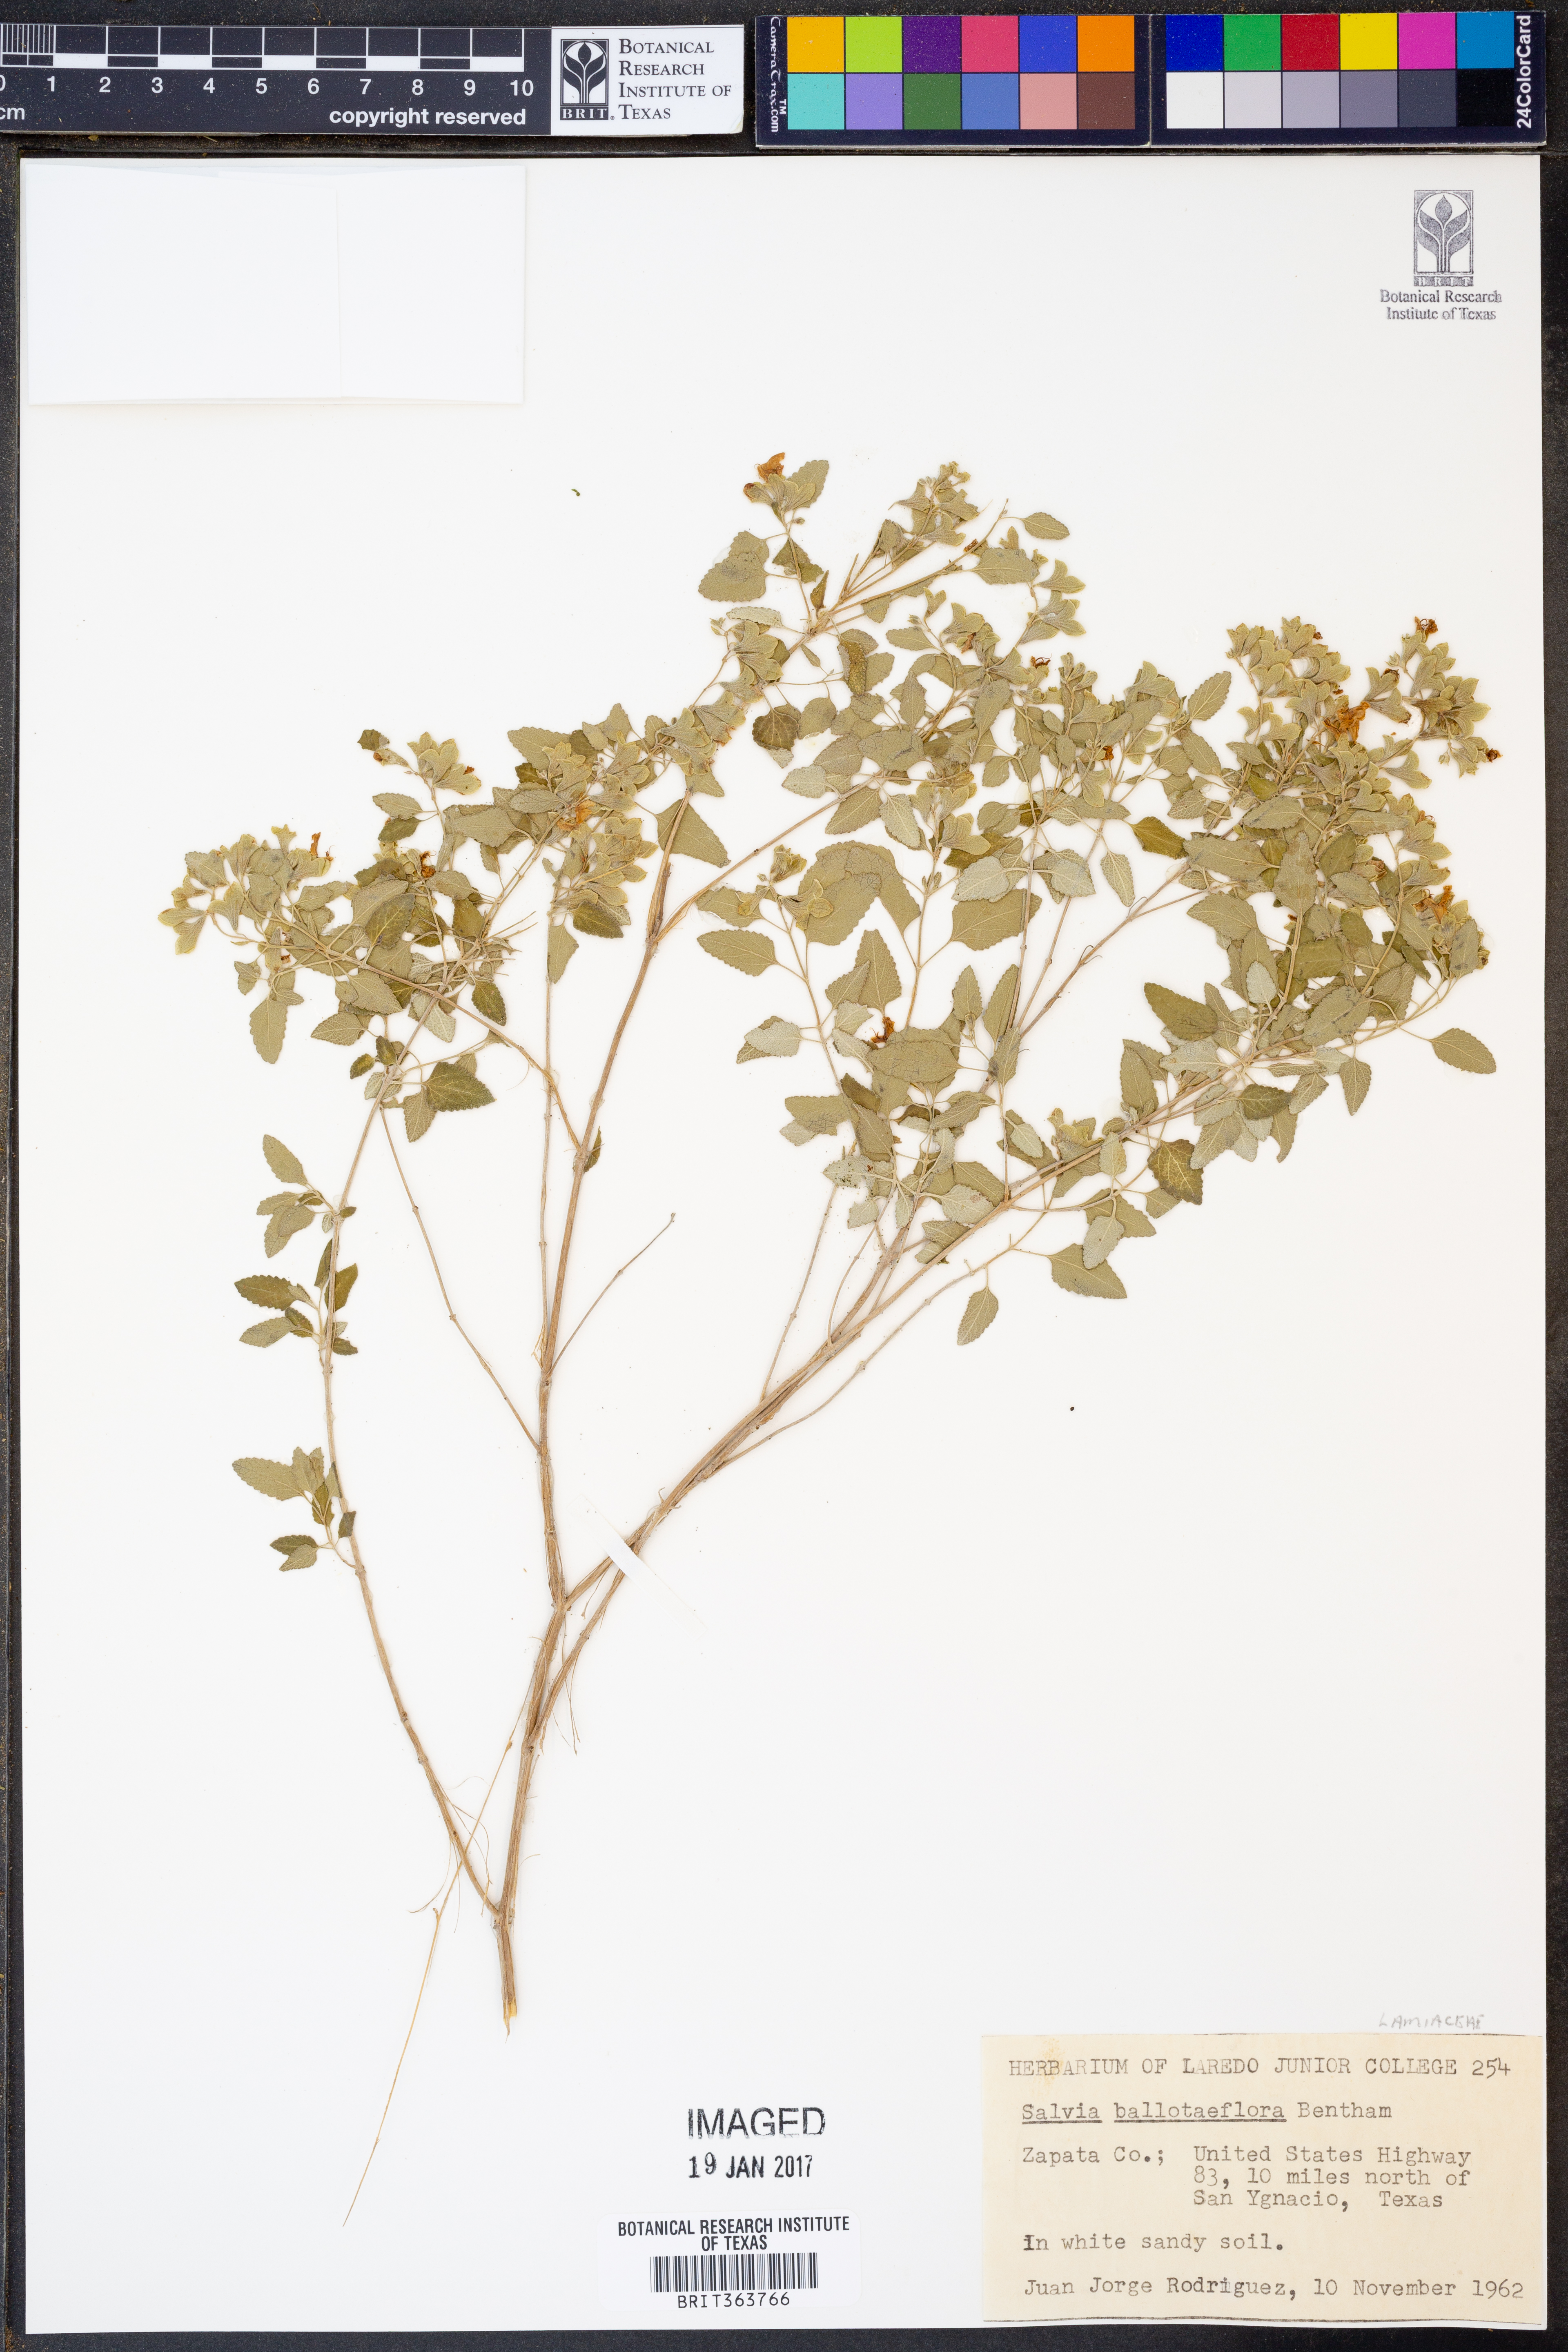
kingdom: Plantae
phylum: Tracheophyta
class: Magnoliopsida
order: Lamiales
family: Lamiaceae
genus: Salvia
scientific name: Salvia ballotiflora
